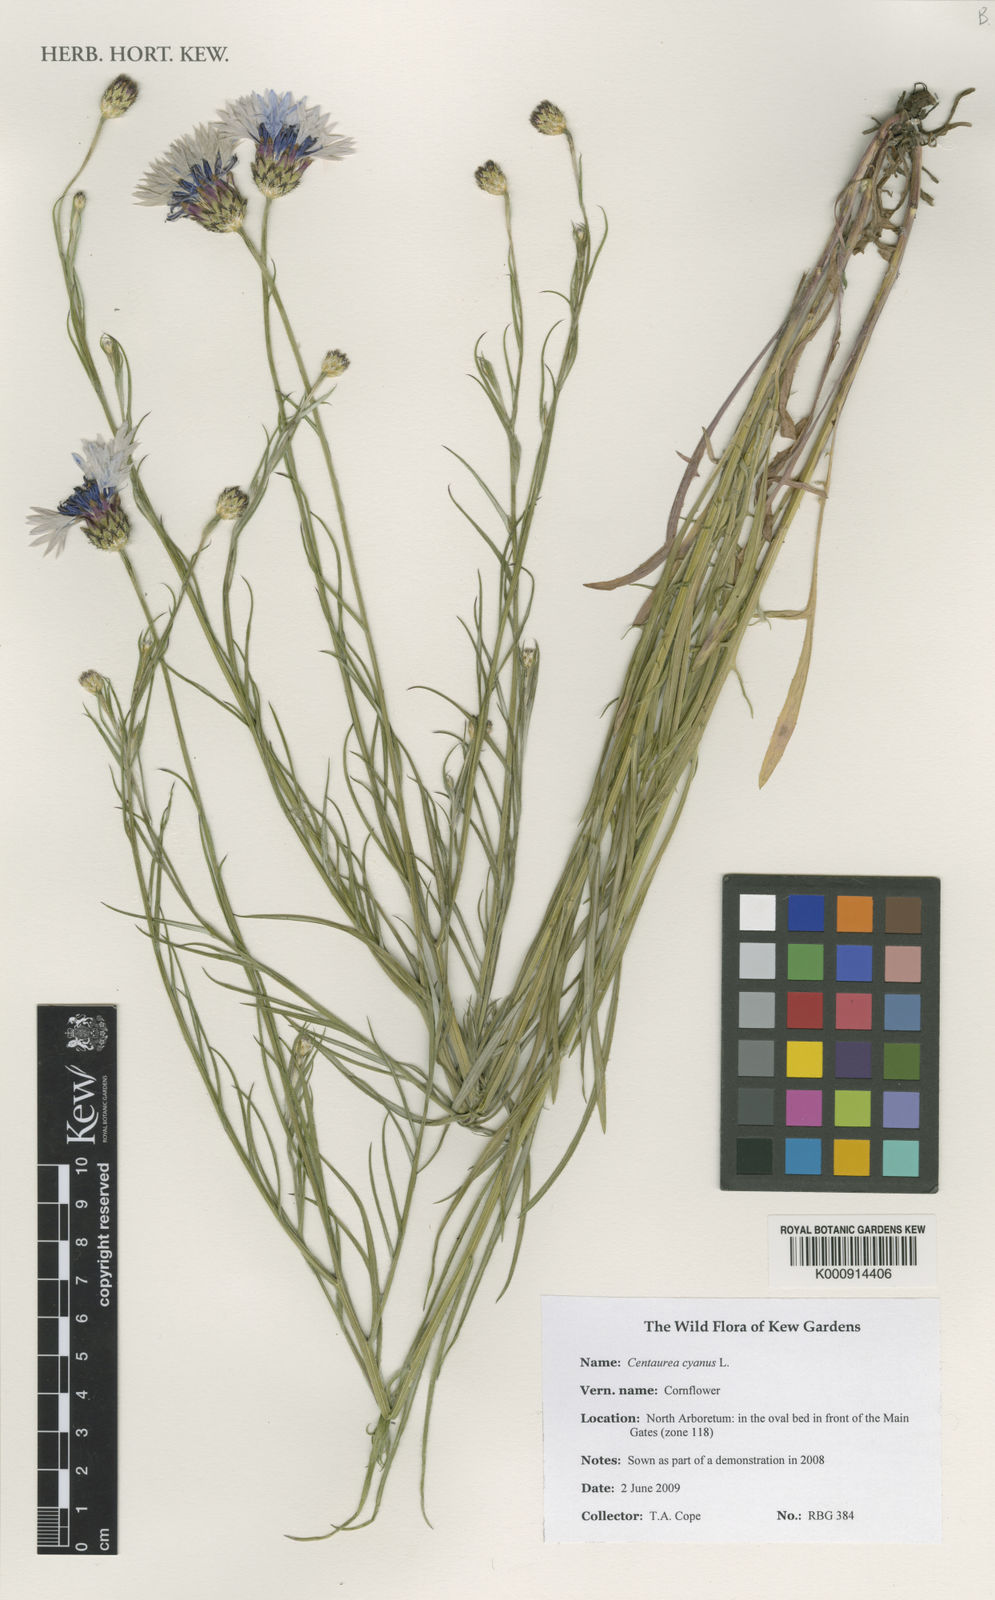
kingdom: Plantae
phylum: Tracheophyta
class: Magnoliopsida
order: Asterales
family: Asteraceae
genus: Centaurea
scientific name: Centaurea cyanus
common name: Cornflower
